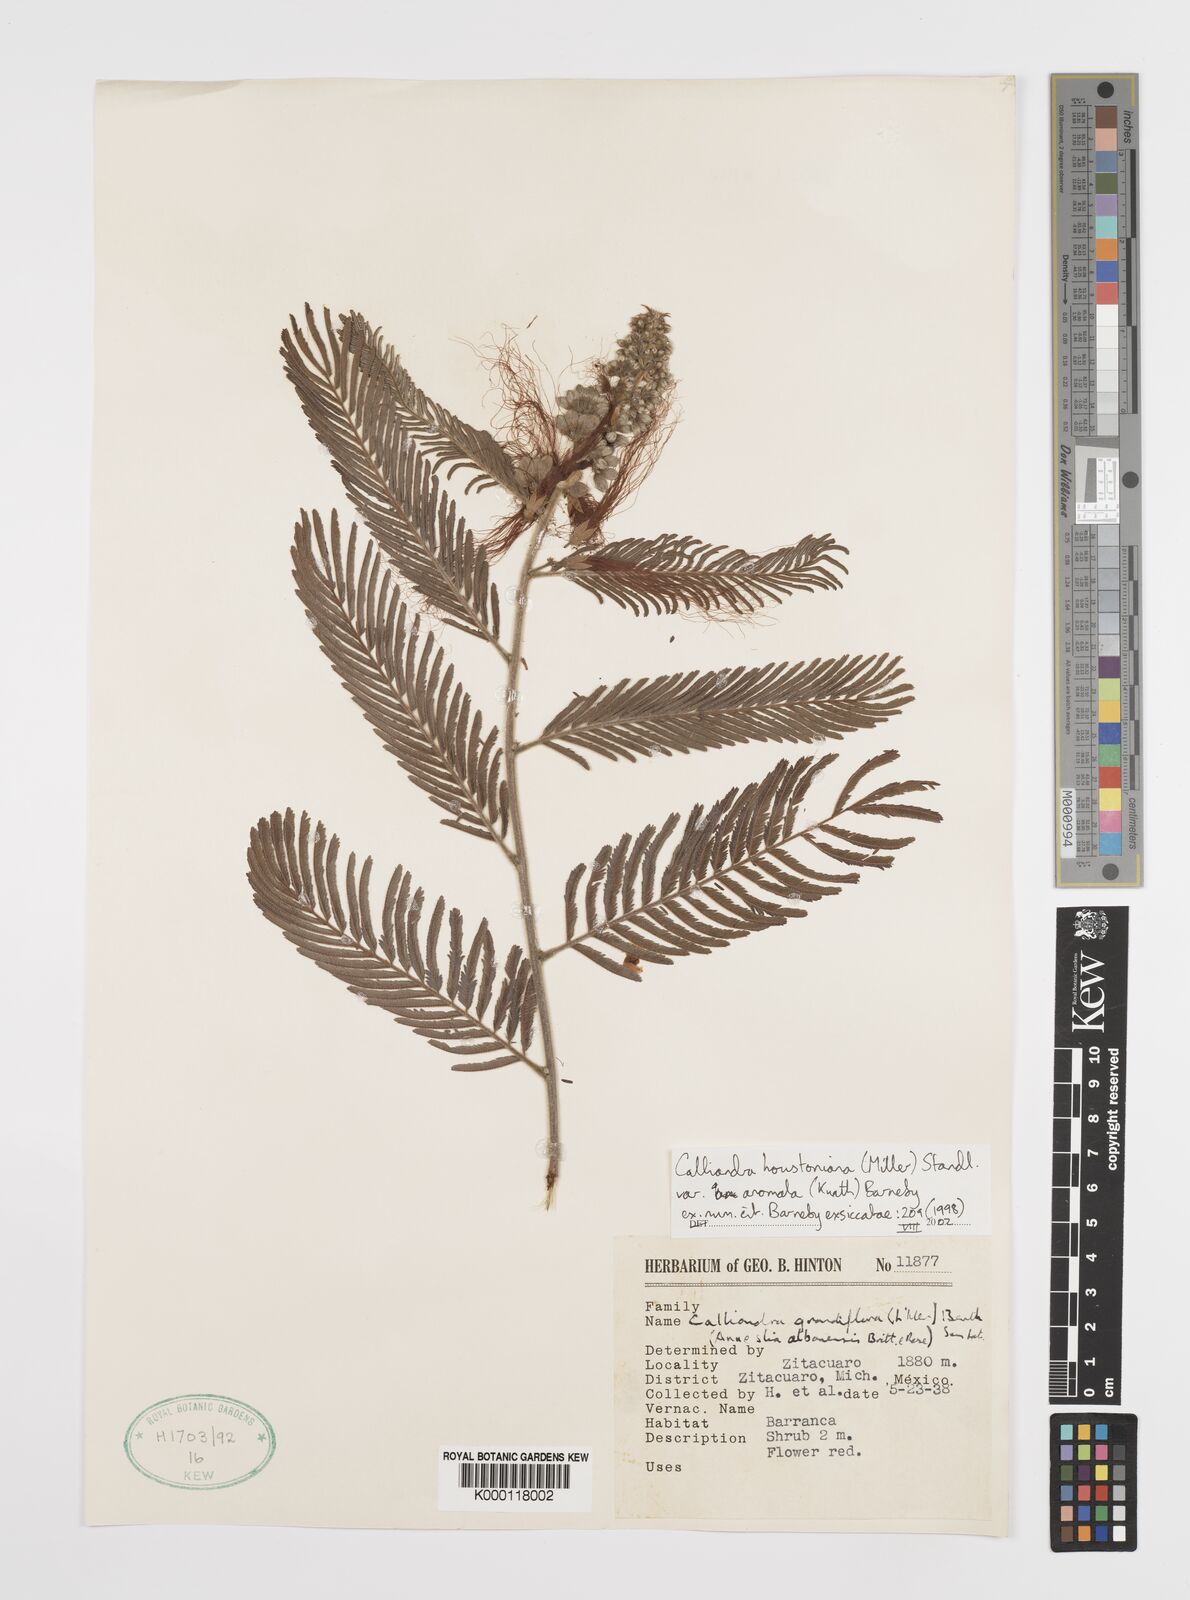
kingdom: Plantae
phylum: Tracheophyta
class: Magnoliopsida
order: Fabales
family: Fabaceae
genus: Calliandra
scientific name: Calliandra houstoniana
